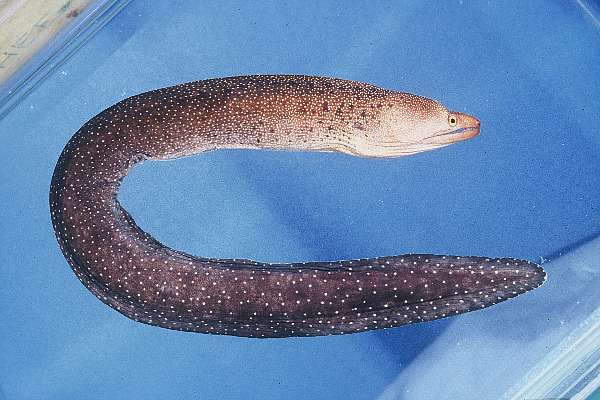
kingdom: Animalia
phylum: Chordata
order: Anguilliformes
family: Muraenidae
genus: Gymnothorax
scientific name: Gymnothorax eurostus
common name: Stout moray
